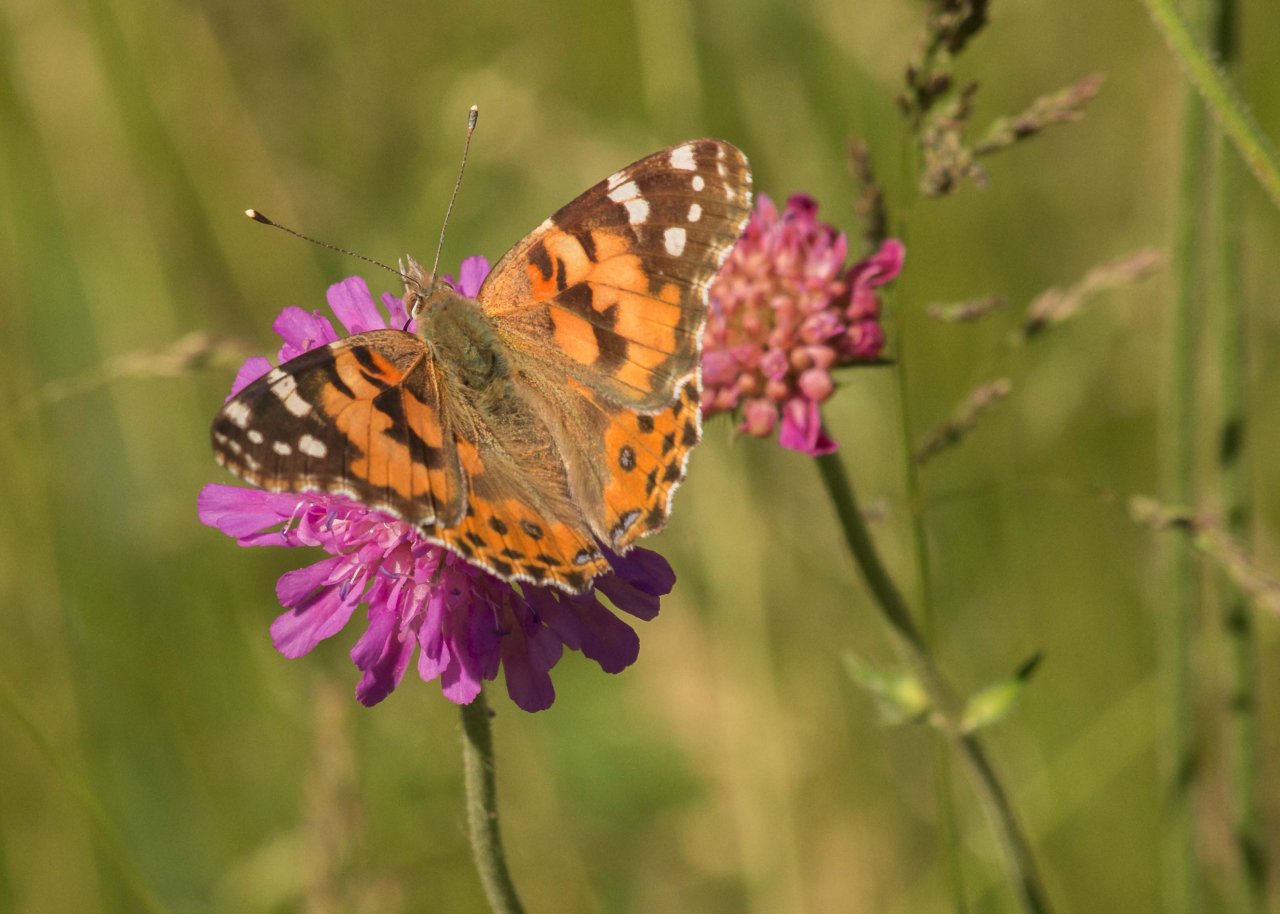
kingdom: Animalia
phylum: Arthropoda
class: Insecta
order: Lepidoptera
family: Nymphalidae
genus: Vanessa
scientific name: Vanessa cardui
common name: Painted Lady
